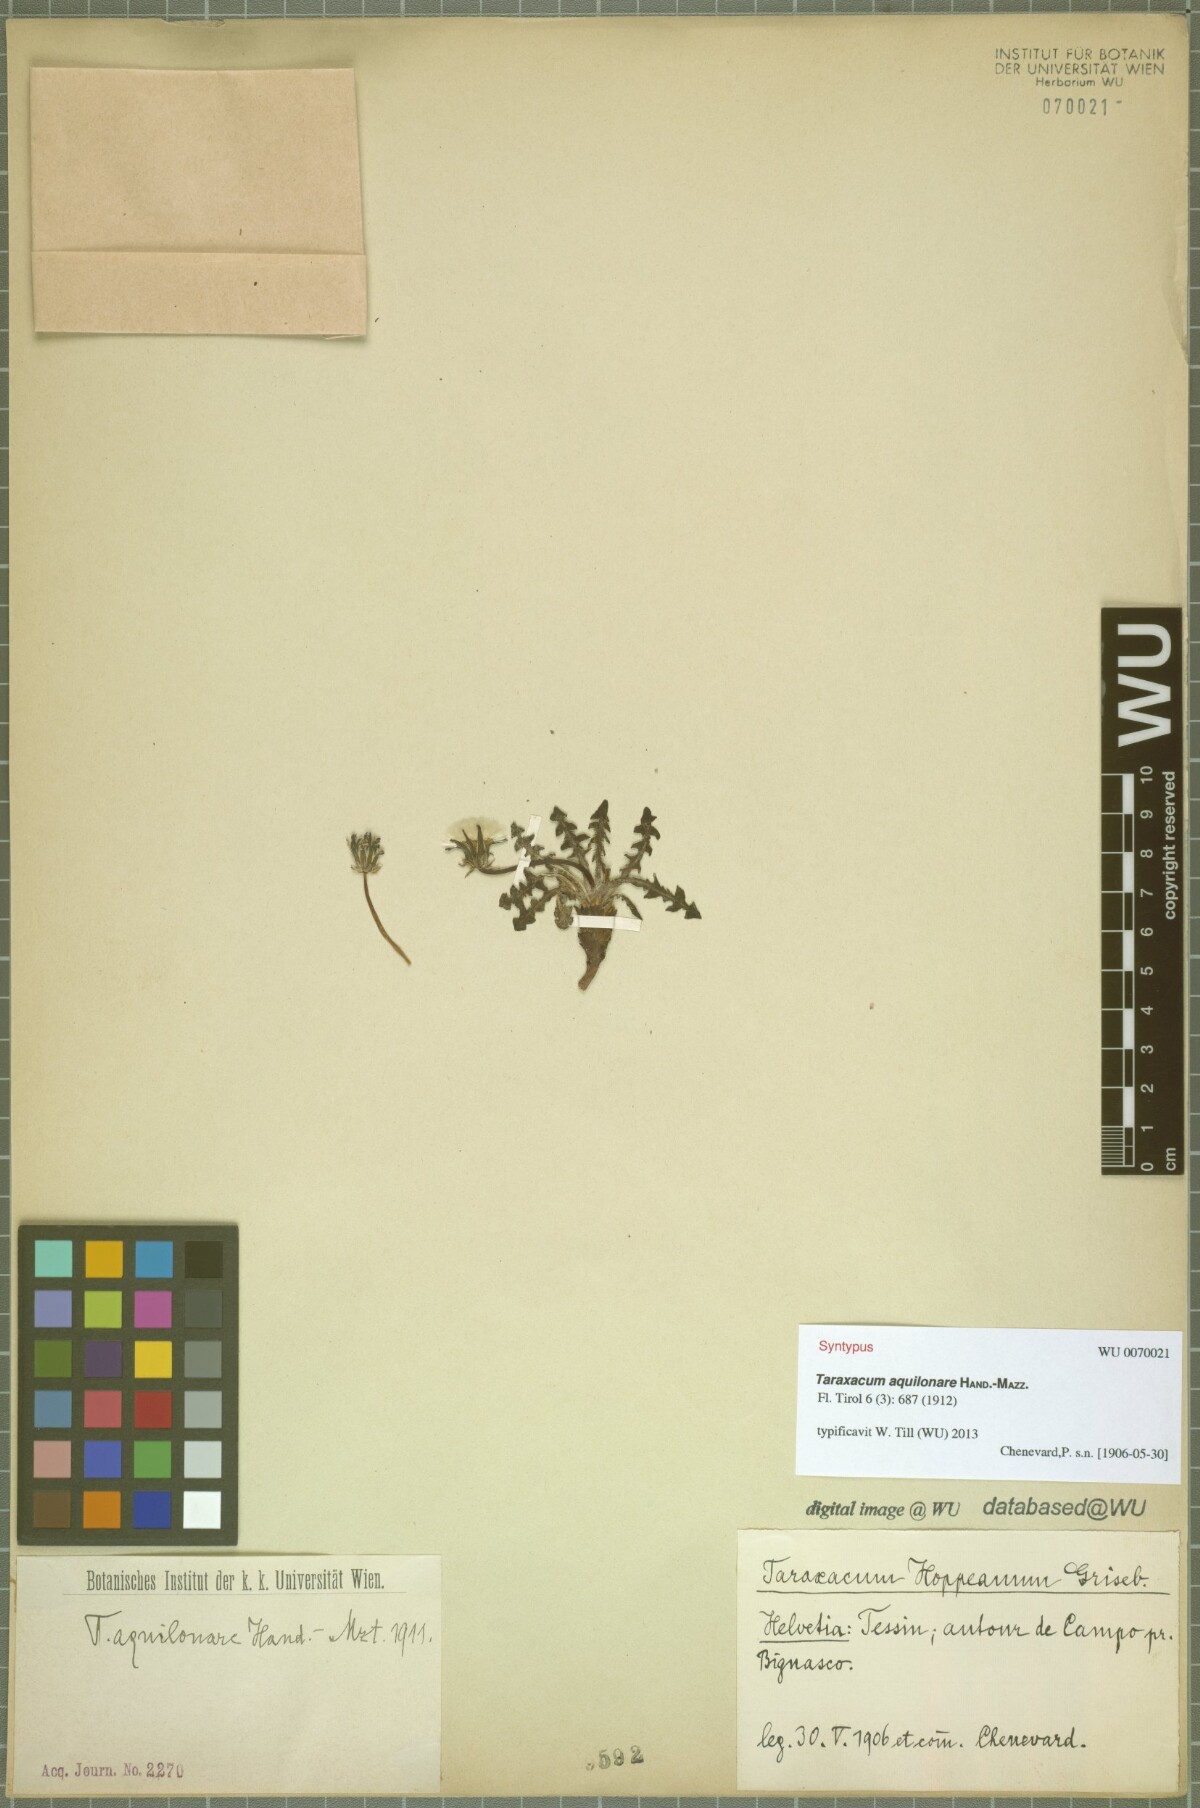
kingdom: Plantae
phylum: Tracheophyta
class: Magnoliopsida
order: Asterales
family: Asteraceae
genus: Taraxacum
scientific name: Taraxacum aquilonare
